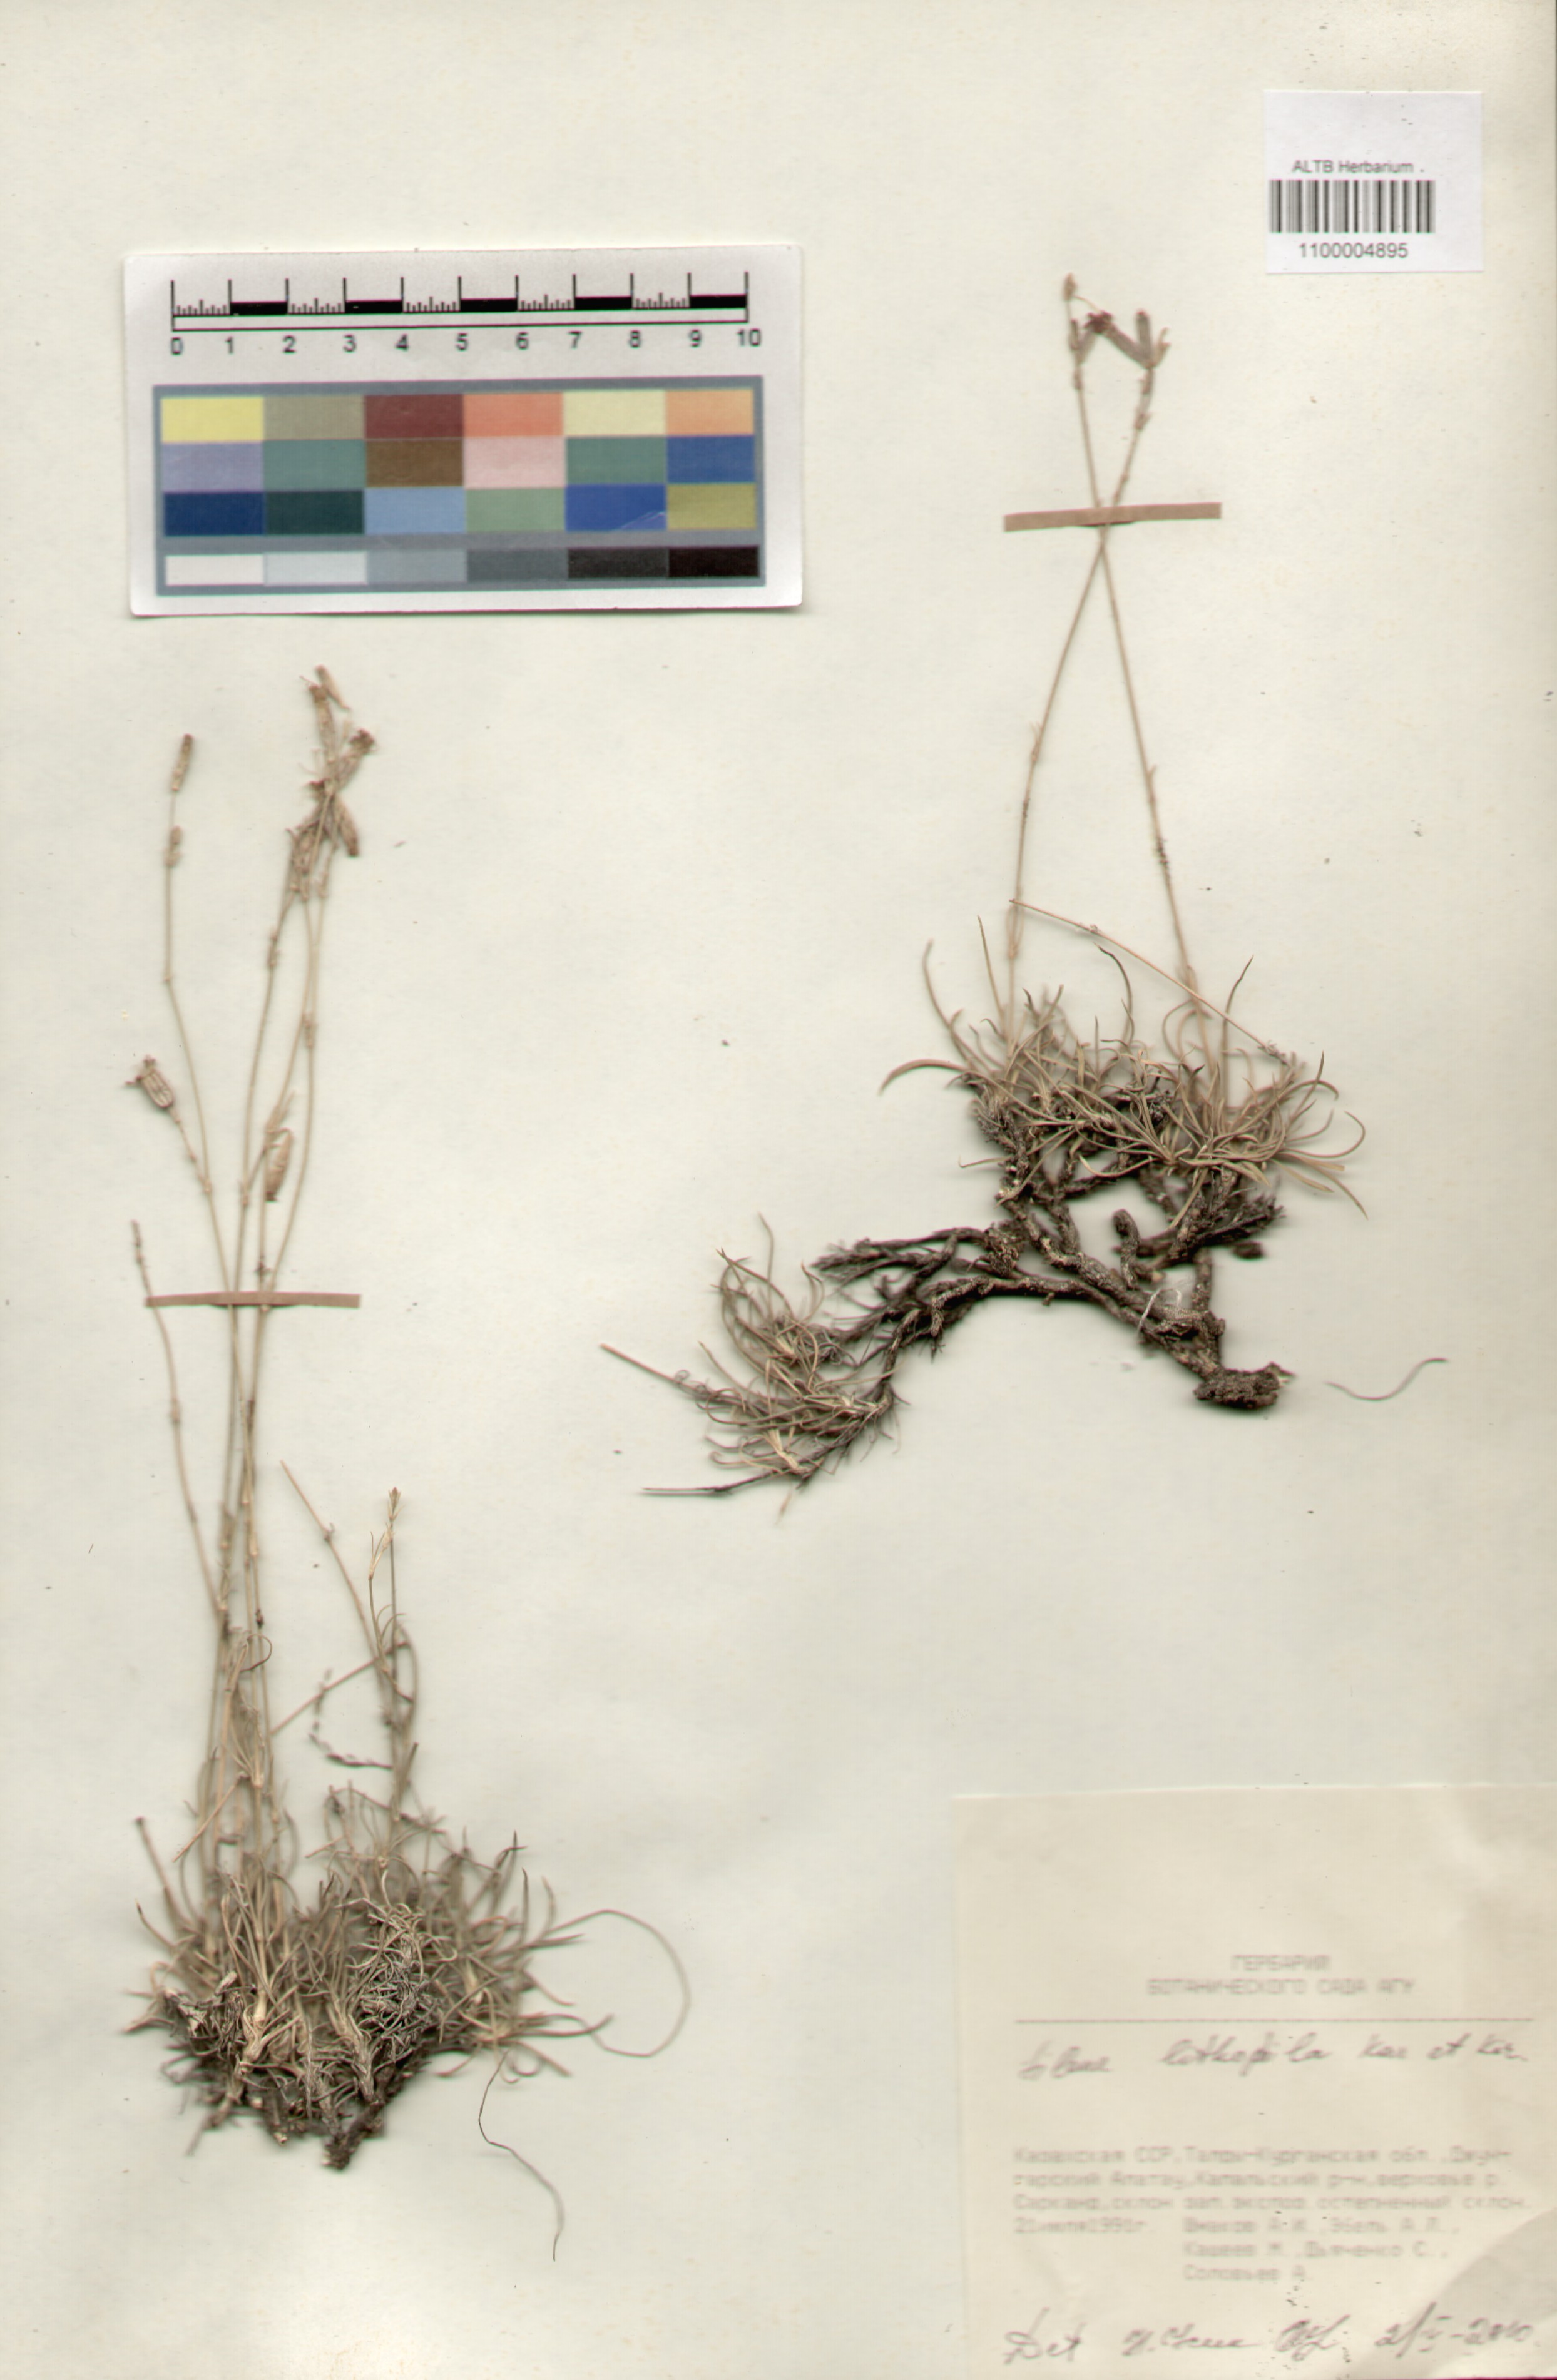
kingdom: Plantae
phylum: Tracheophyta
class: Magnoliopsida
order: Caryophyllales
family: Caryophyllaceae
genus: Silene
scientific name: Silene lithophila
